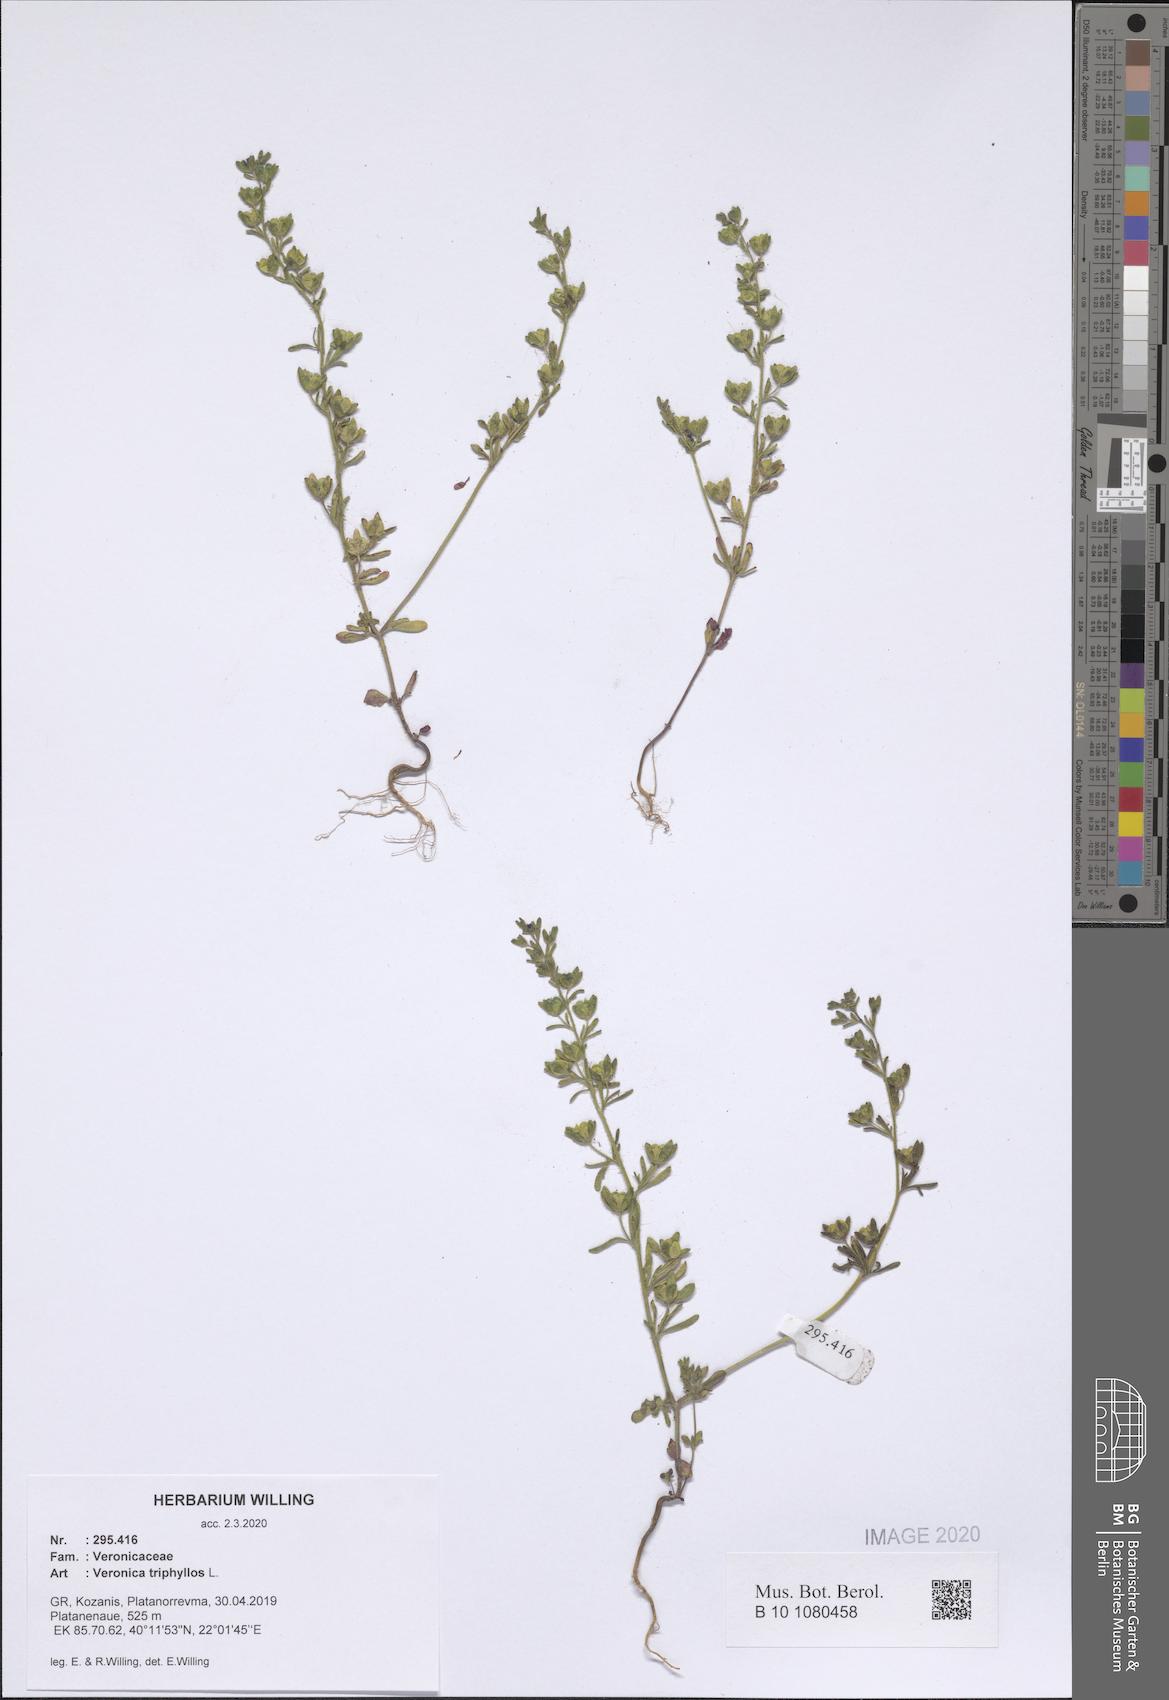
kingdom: Plantae
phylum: Tracheophyta
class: Magnoliopsida
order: Lamiales
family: Plantaginaceae
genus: Veronica
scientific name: Veronica triphyllos
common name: Fingered speedwell
